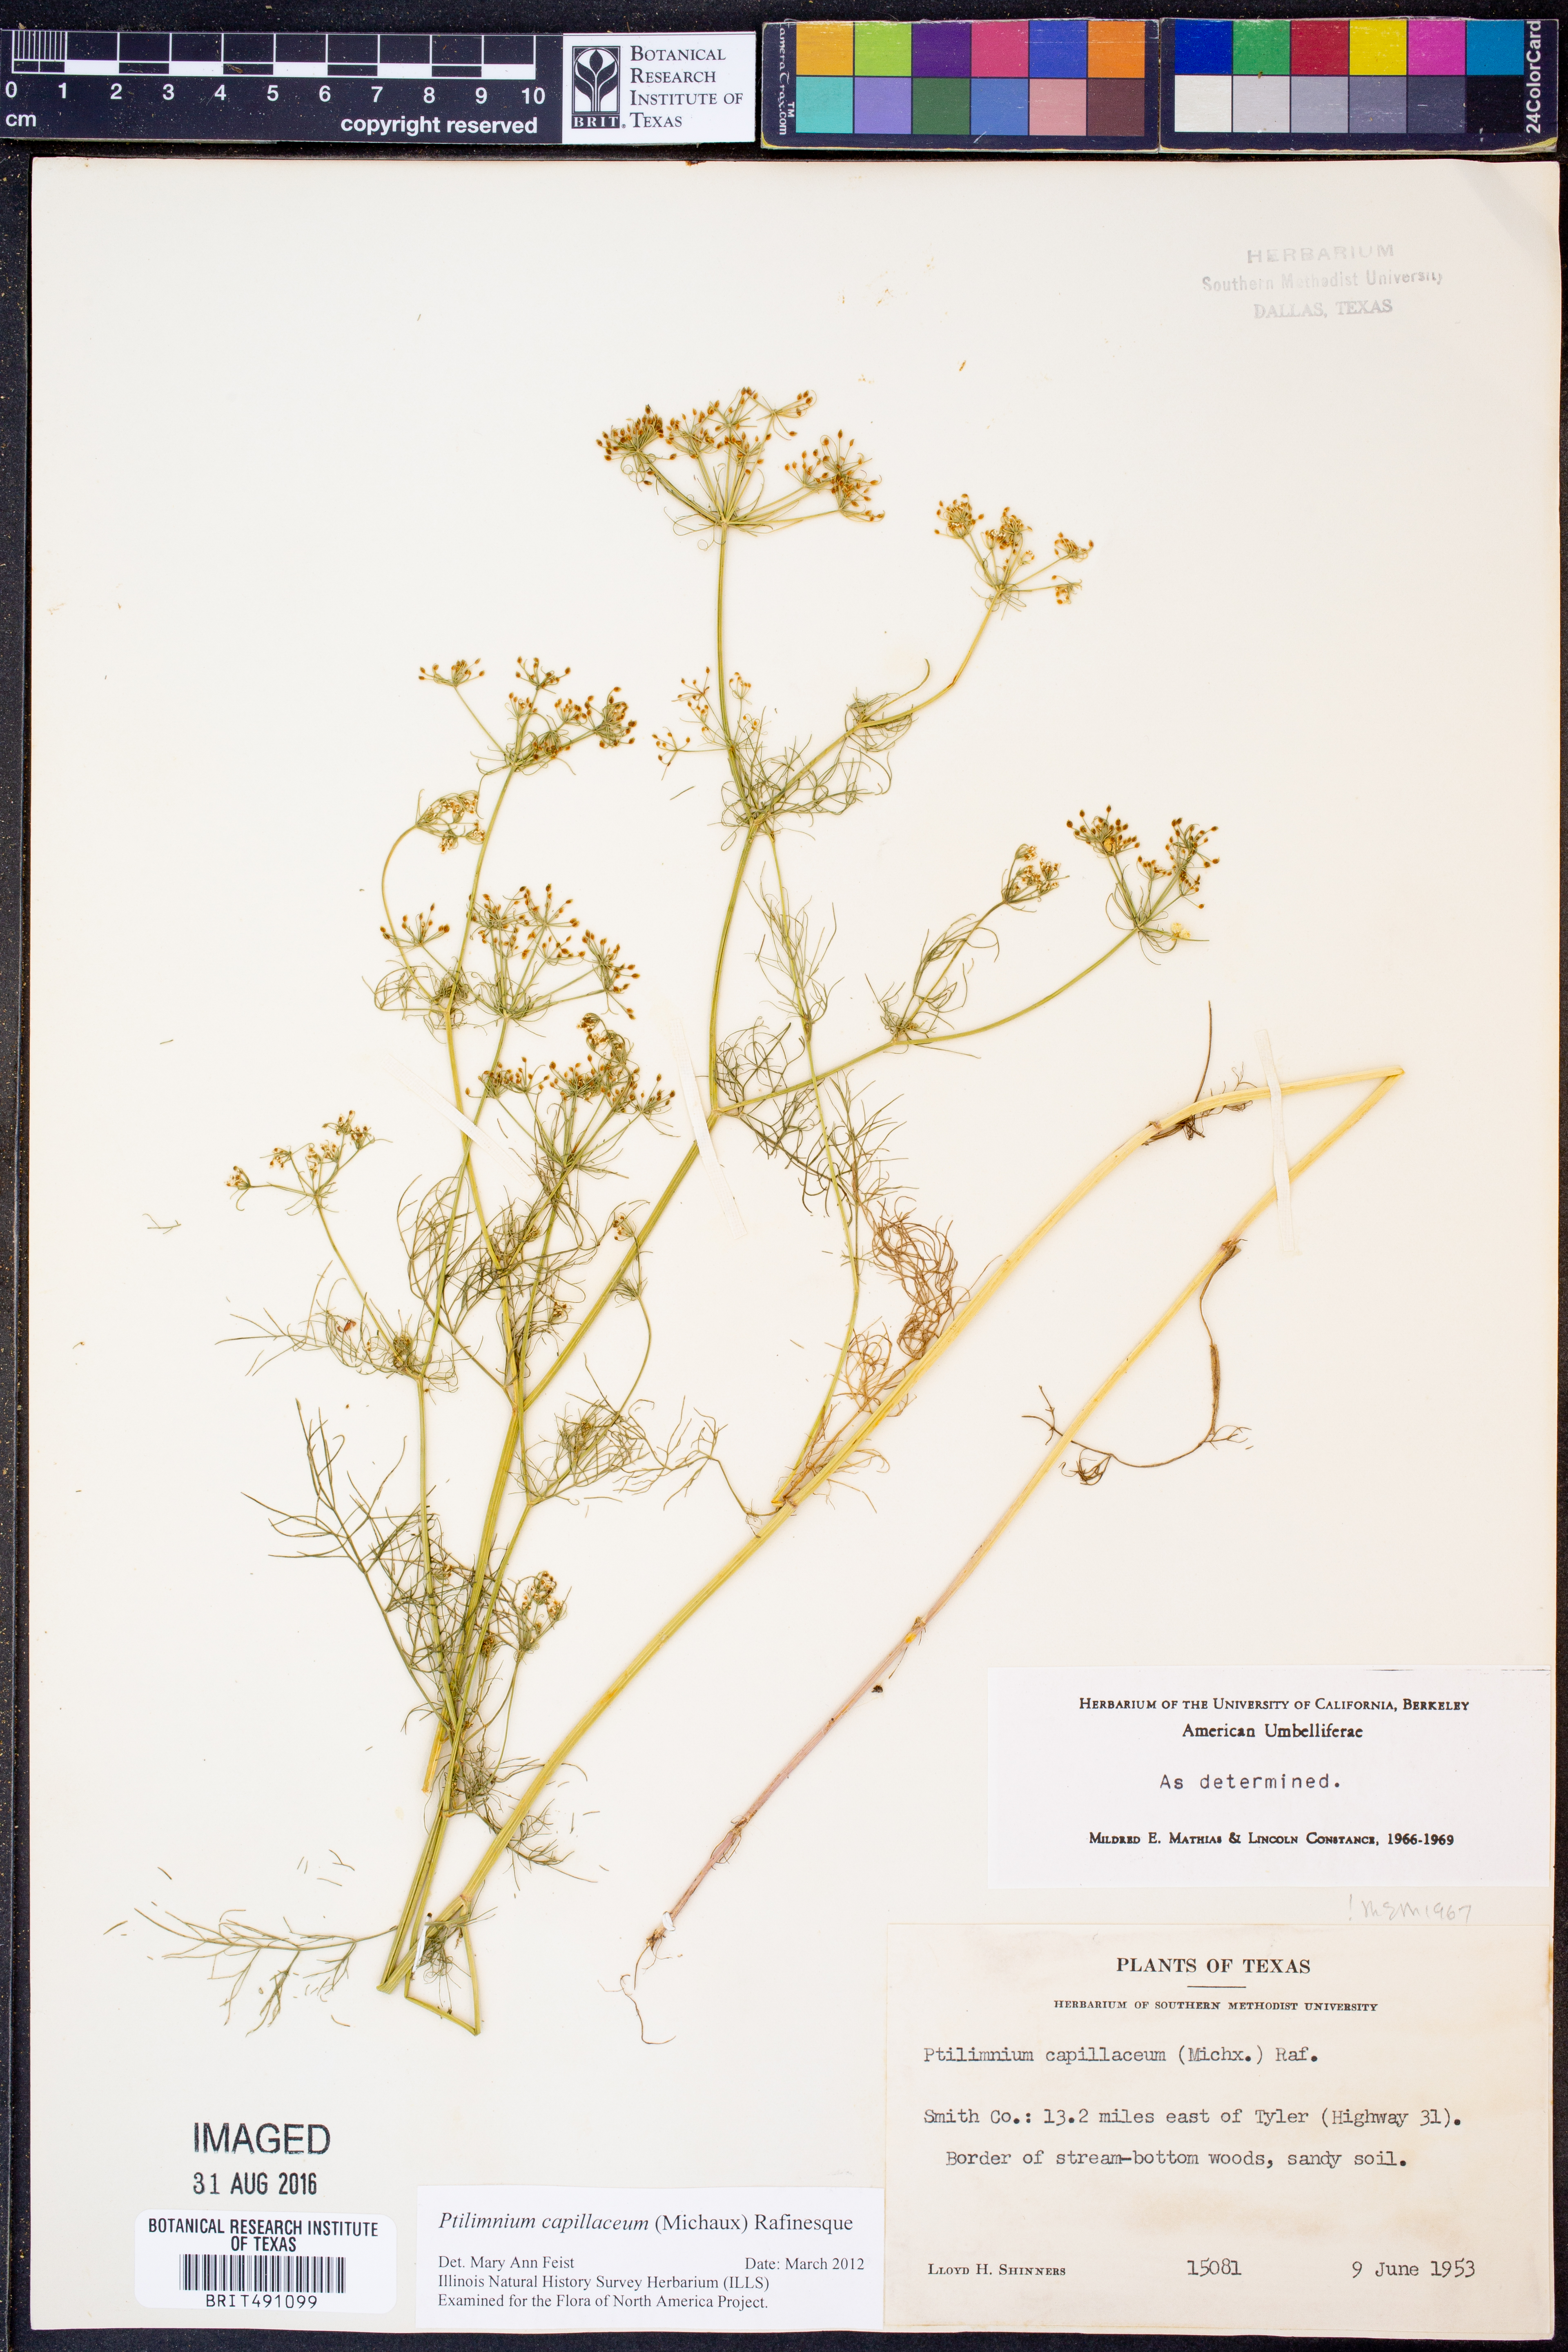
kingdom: Plantae
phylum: Tracheophyta
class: Magnoliopsida
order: Apiales
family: Apiaceae
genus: Ptilimnium
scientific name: Ptilimnium capillaceum
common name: Herbwilliam
